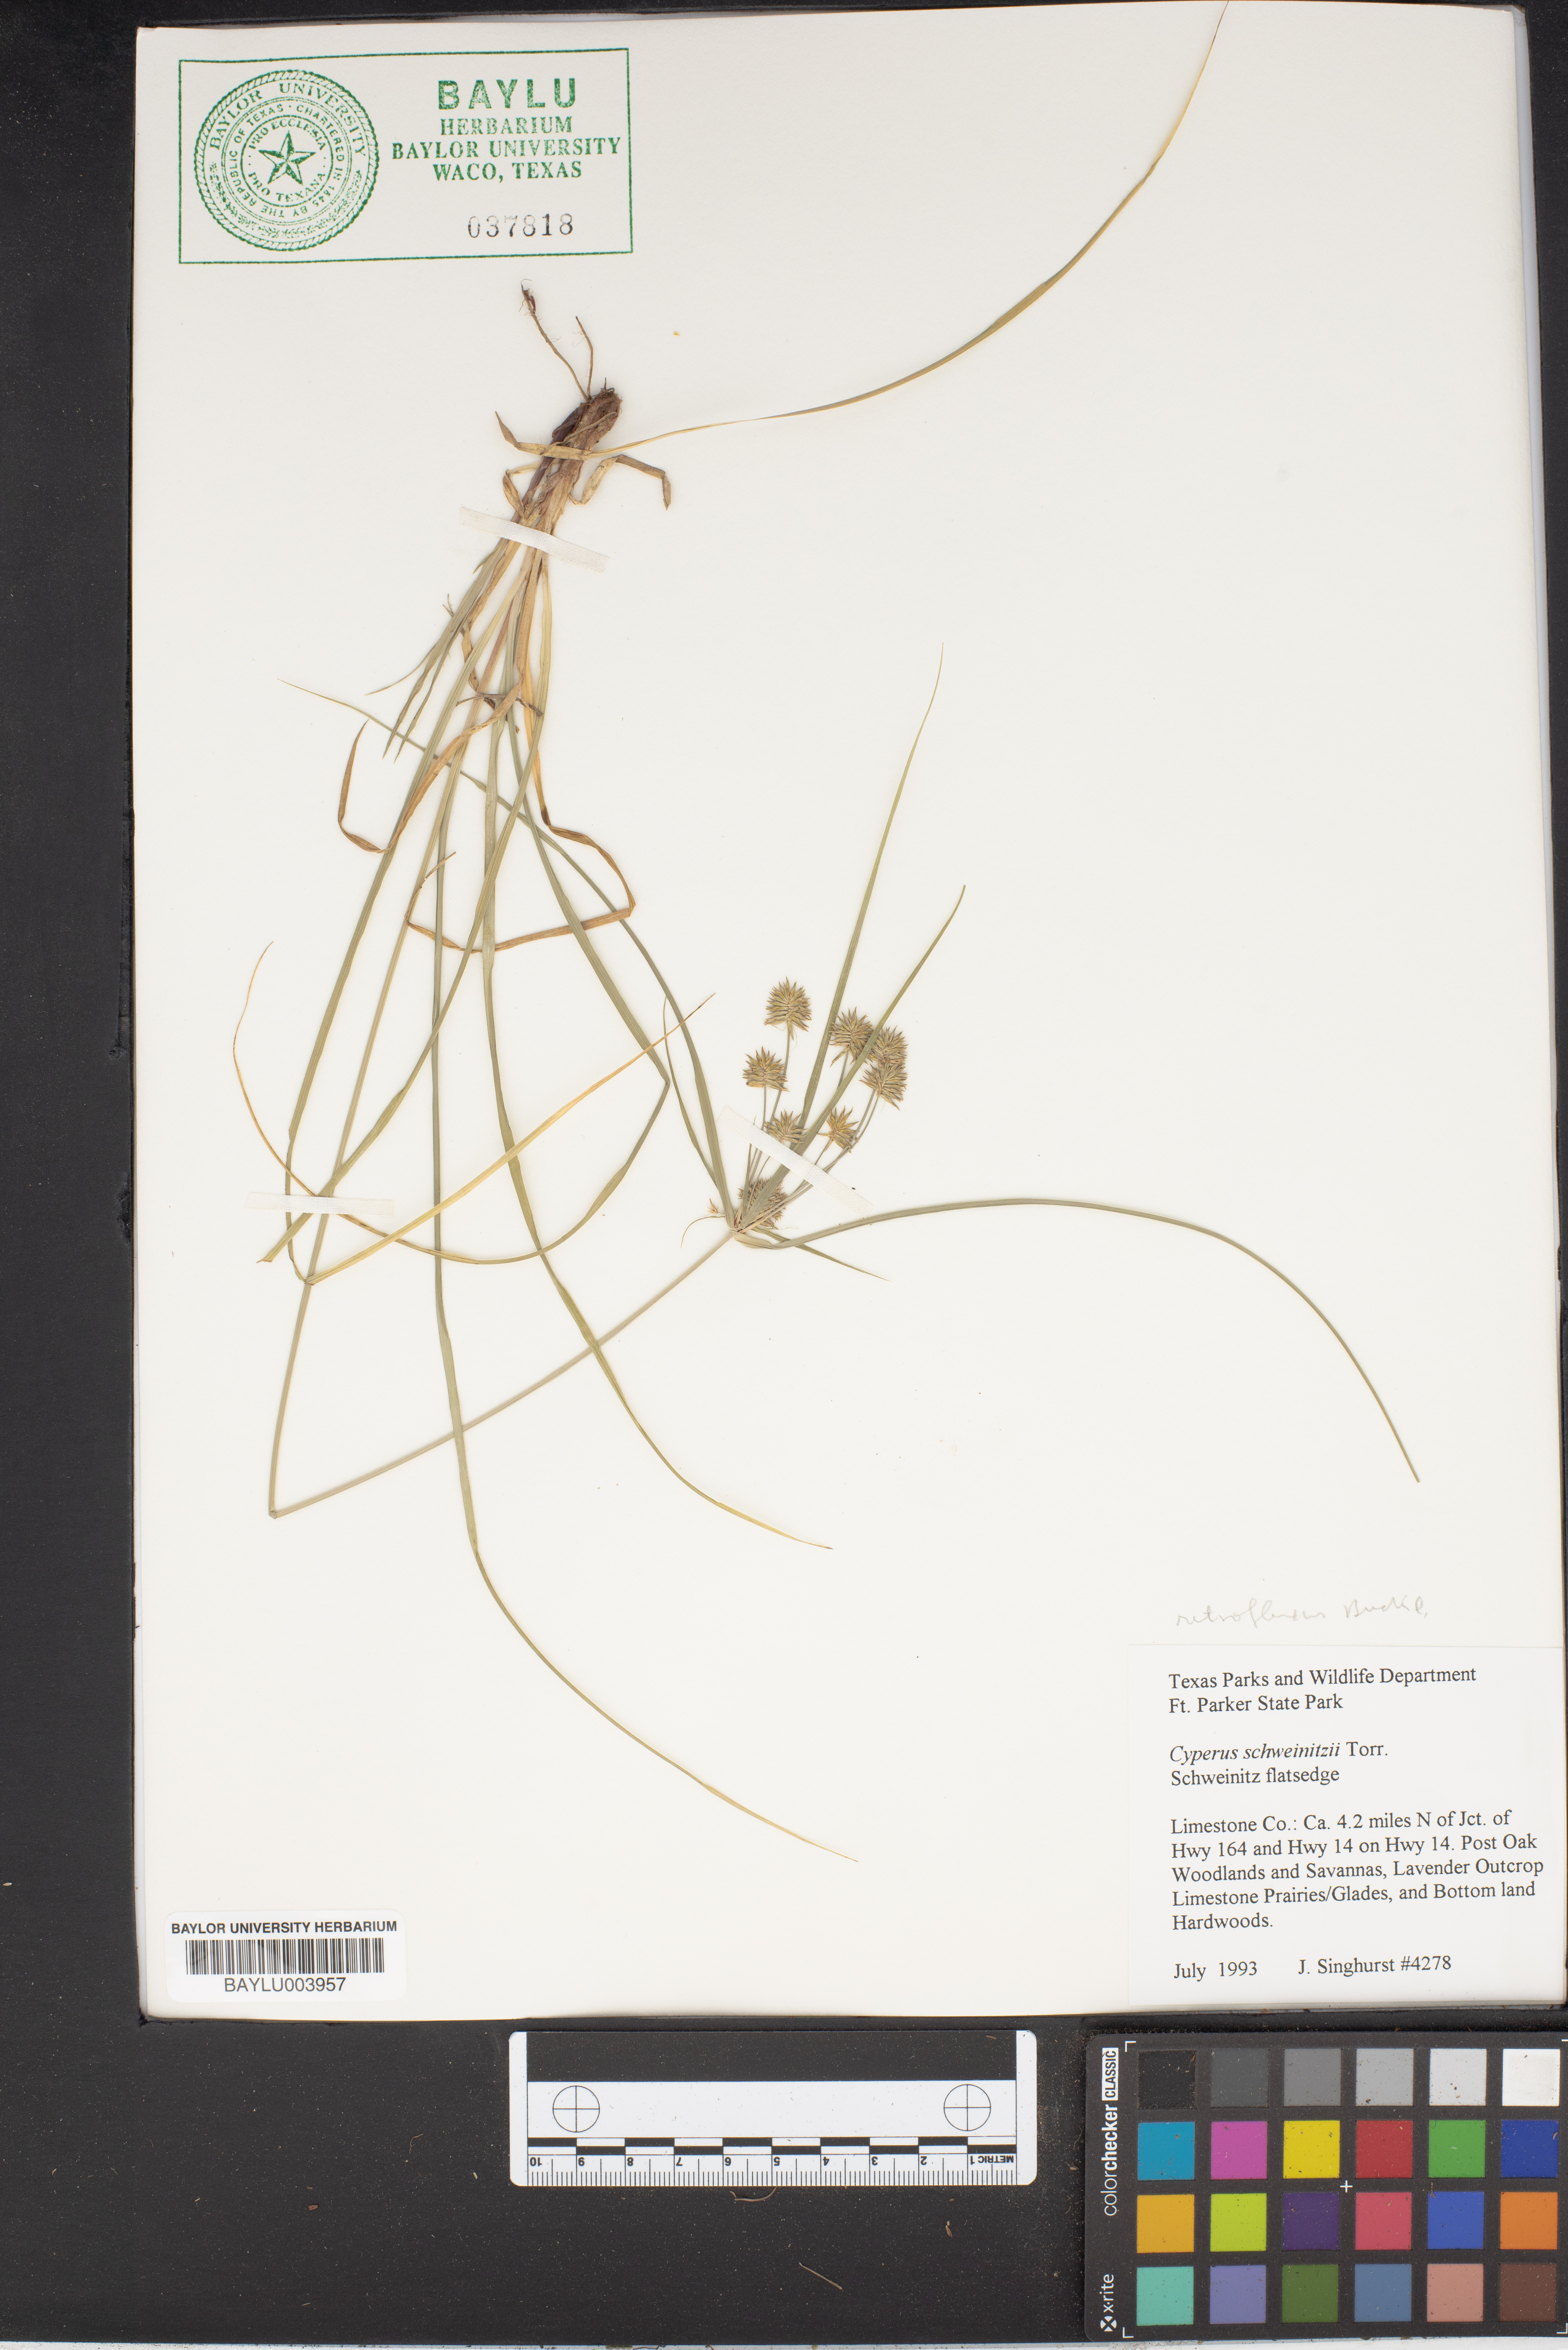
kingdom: Plantae
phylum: Tracheophyta
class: Liliopsida
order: Poales
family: Cyperaceae
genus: Cyperus
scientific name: Cyperus schweinitzii
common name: Schweinitz's cyperus
